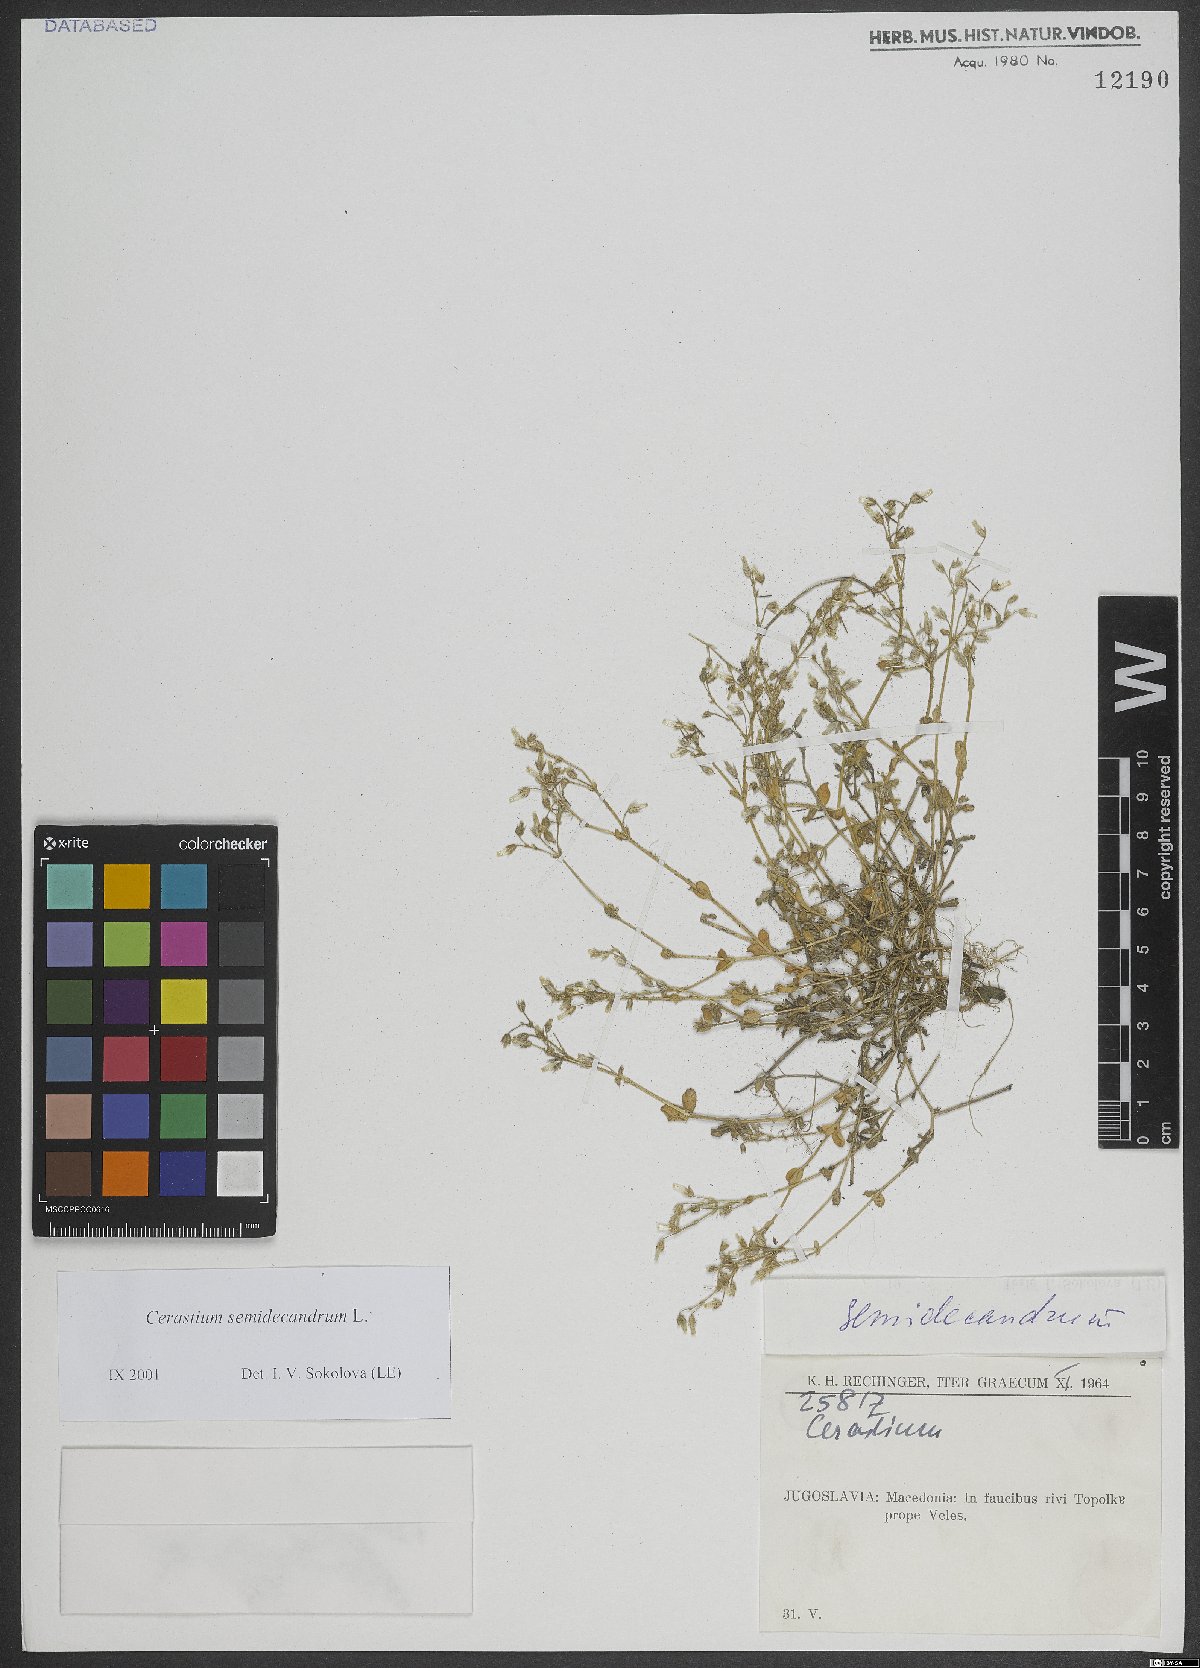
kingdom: Plantae
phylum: Tracheophyta
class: Magnoliopsida
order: Caryophyllales
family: Caryophyllaceae
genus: Cerastium
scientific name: Cerastium semidecandrum
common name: Little mouse-ear
